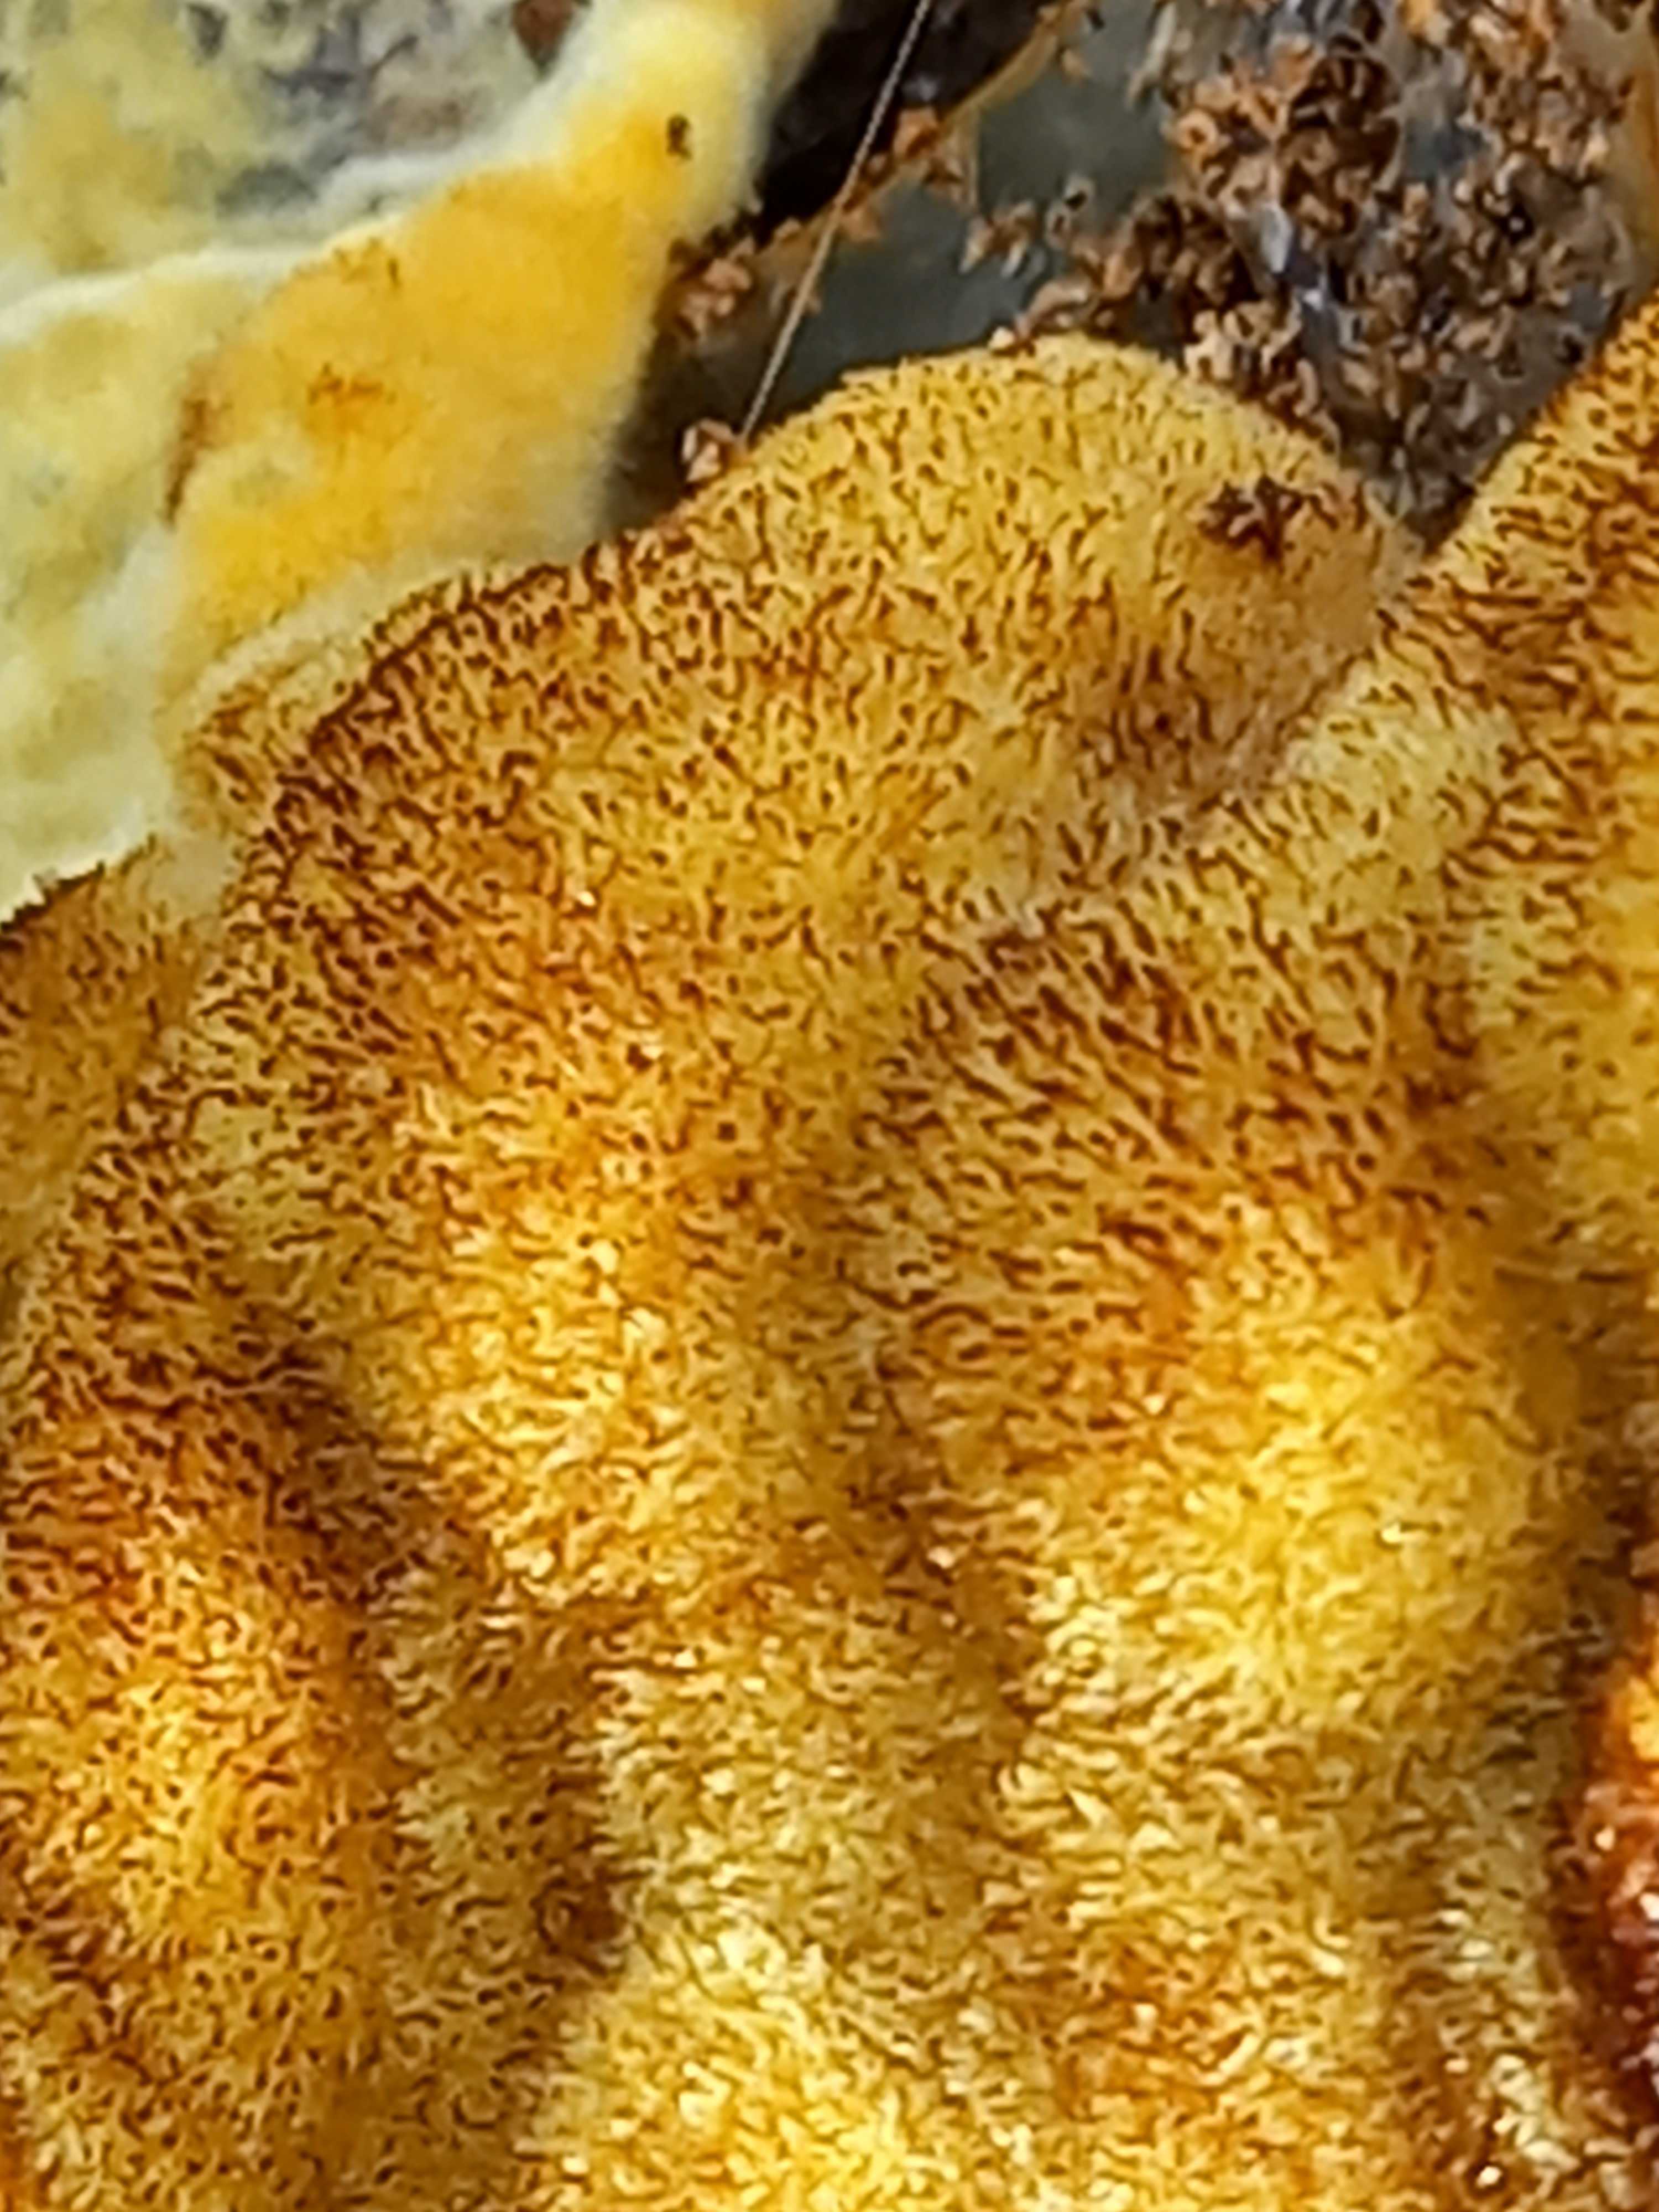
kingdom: Fungi
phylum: Basidiomycota
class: Agaricomycetes
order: Polyporales
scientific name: Polyporales
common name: poresvampordenen
